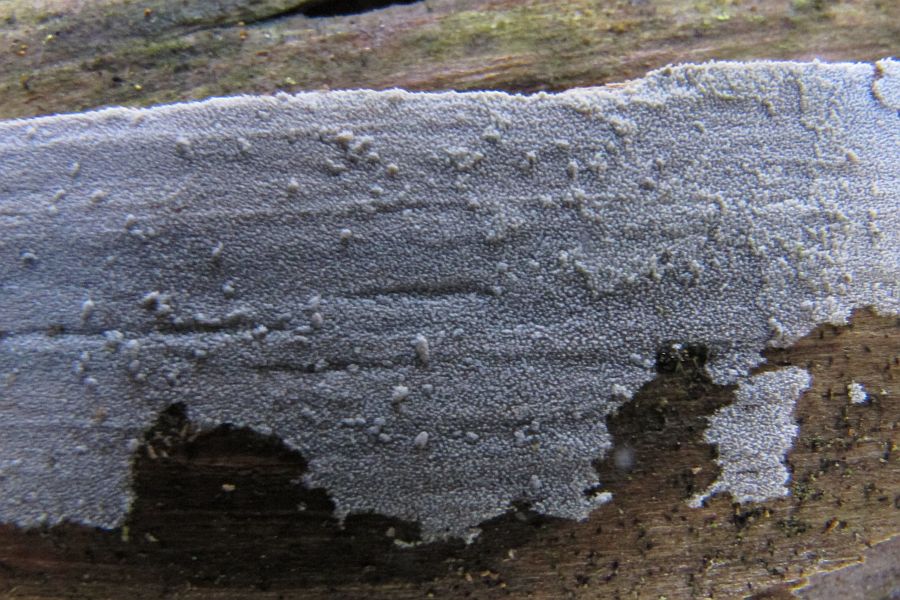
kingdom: Fungi
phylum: Basidiomycota
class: Agaricomycetes
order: Hymenochaetales
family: Rickenellaceae
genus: Resinicium
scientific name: Resinicium bicolor
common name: almindelig vokstand
